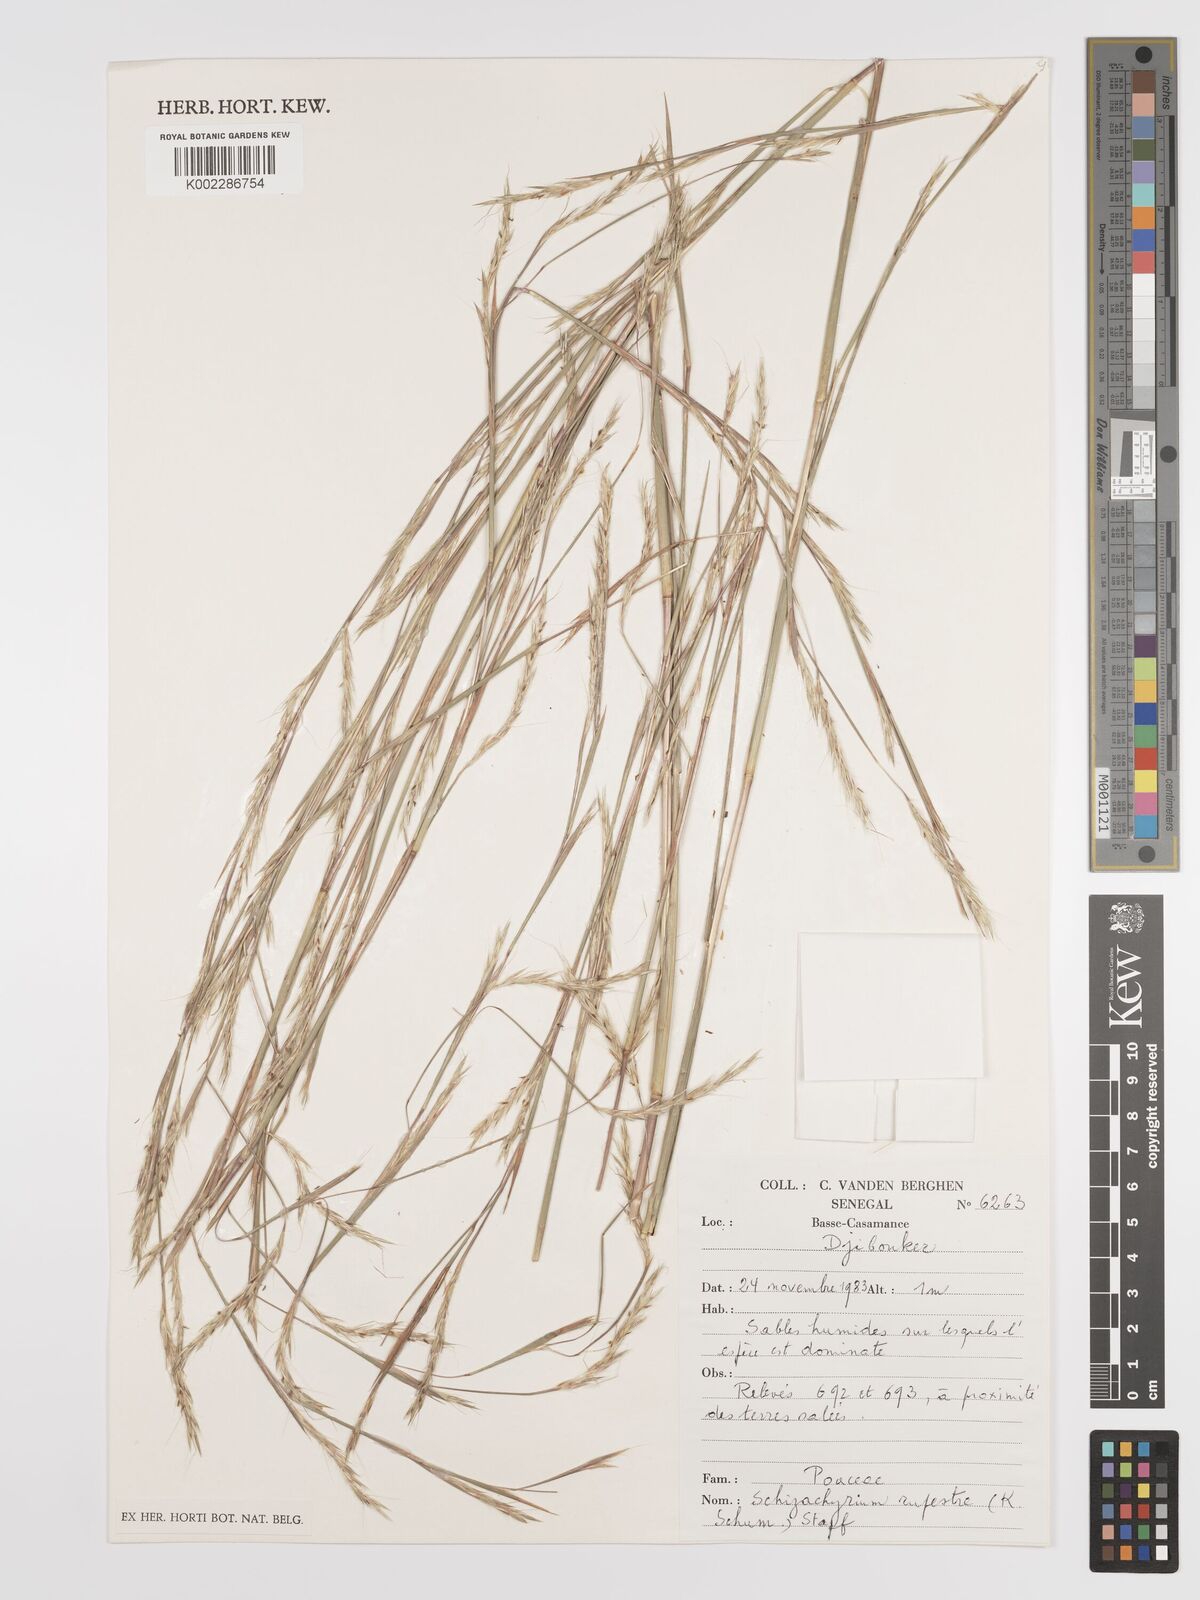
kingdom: Plantae
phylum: Tracheophyta
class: Liliopsida
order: Poales
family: Poaceae
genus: Andropogon
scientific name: Andropogon rupestris
